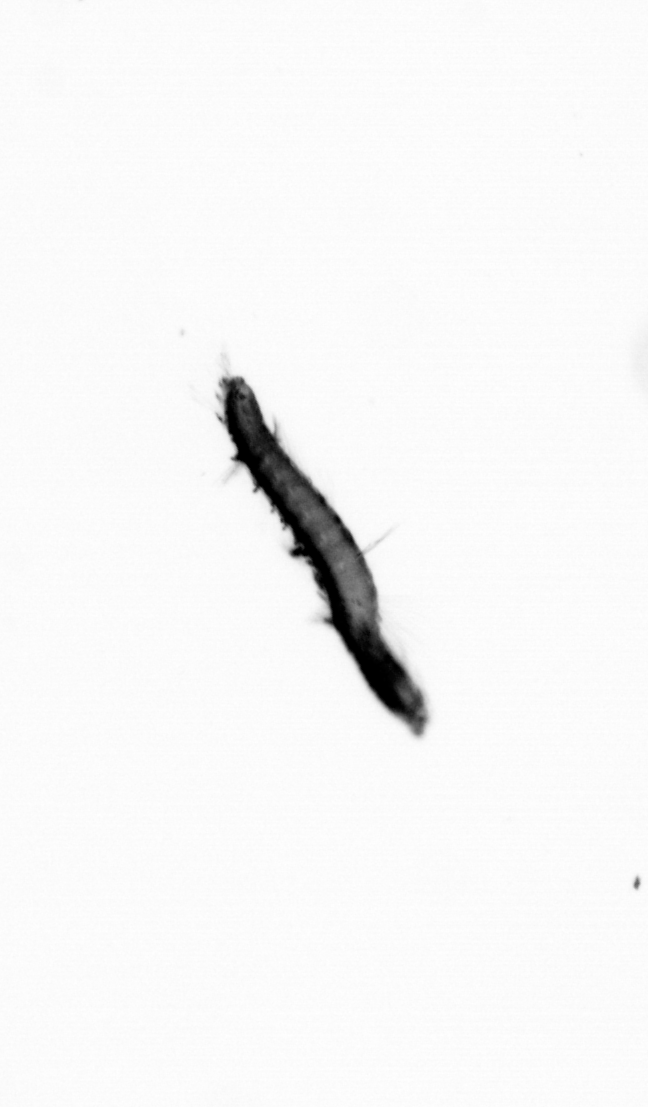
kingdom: Animalia
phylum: Annelida
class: Polychaeta
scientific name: Polychaeta
